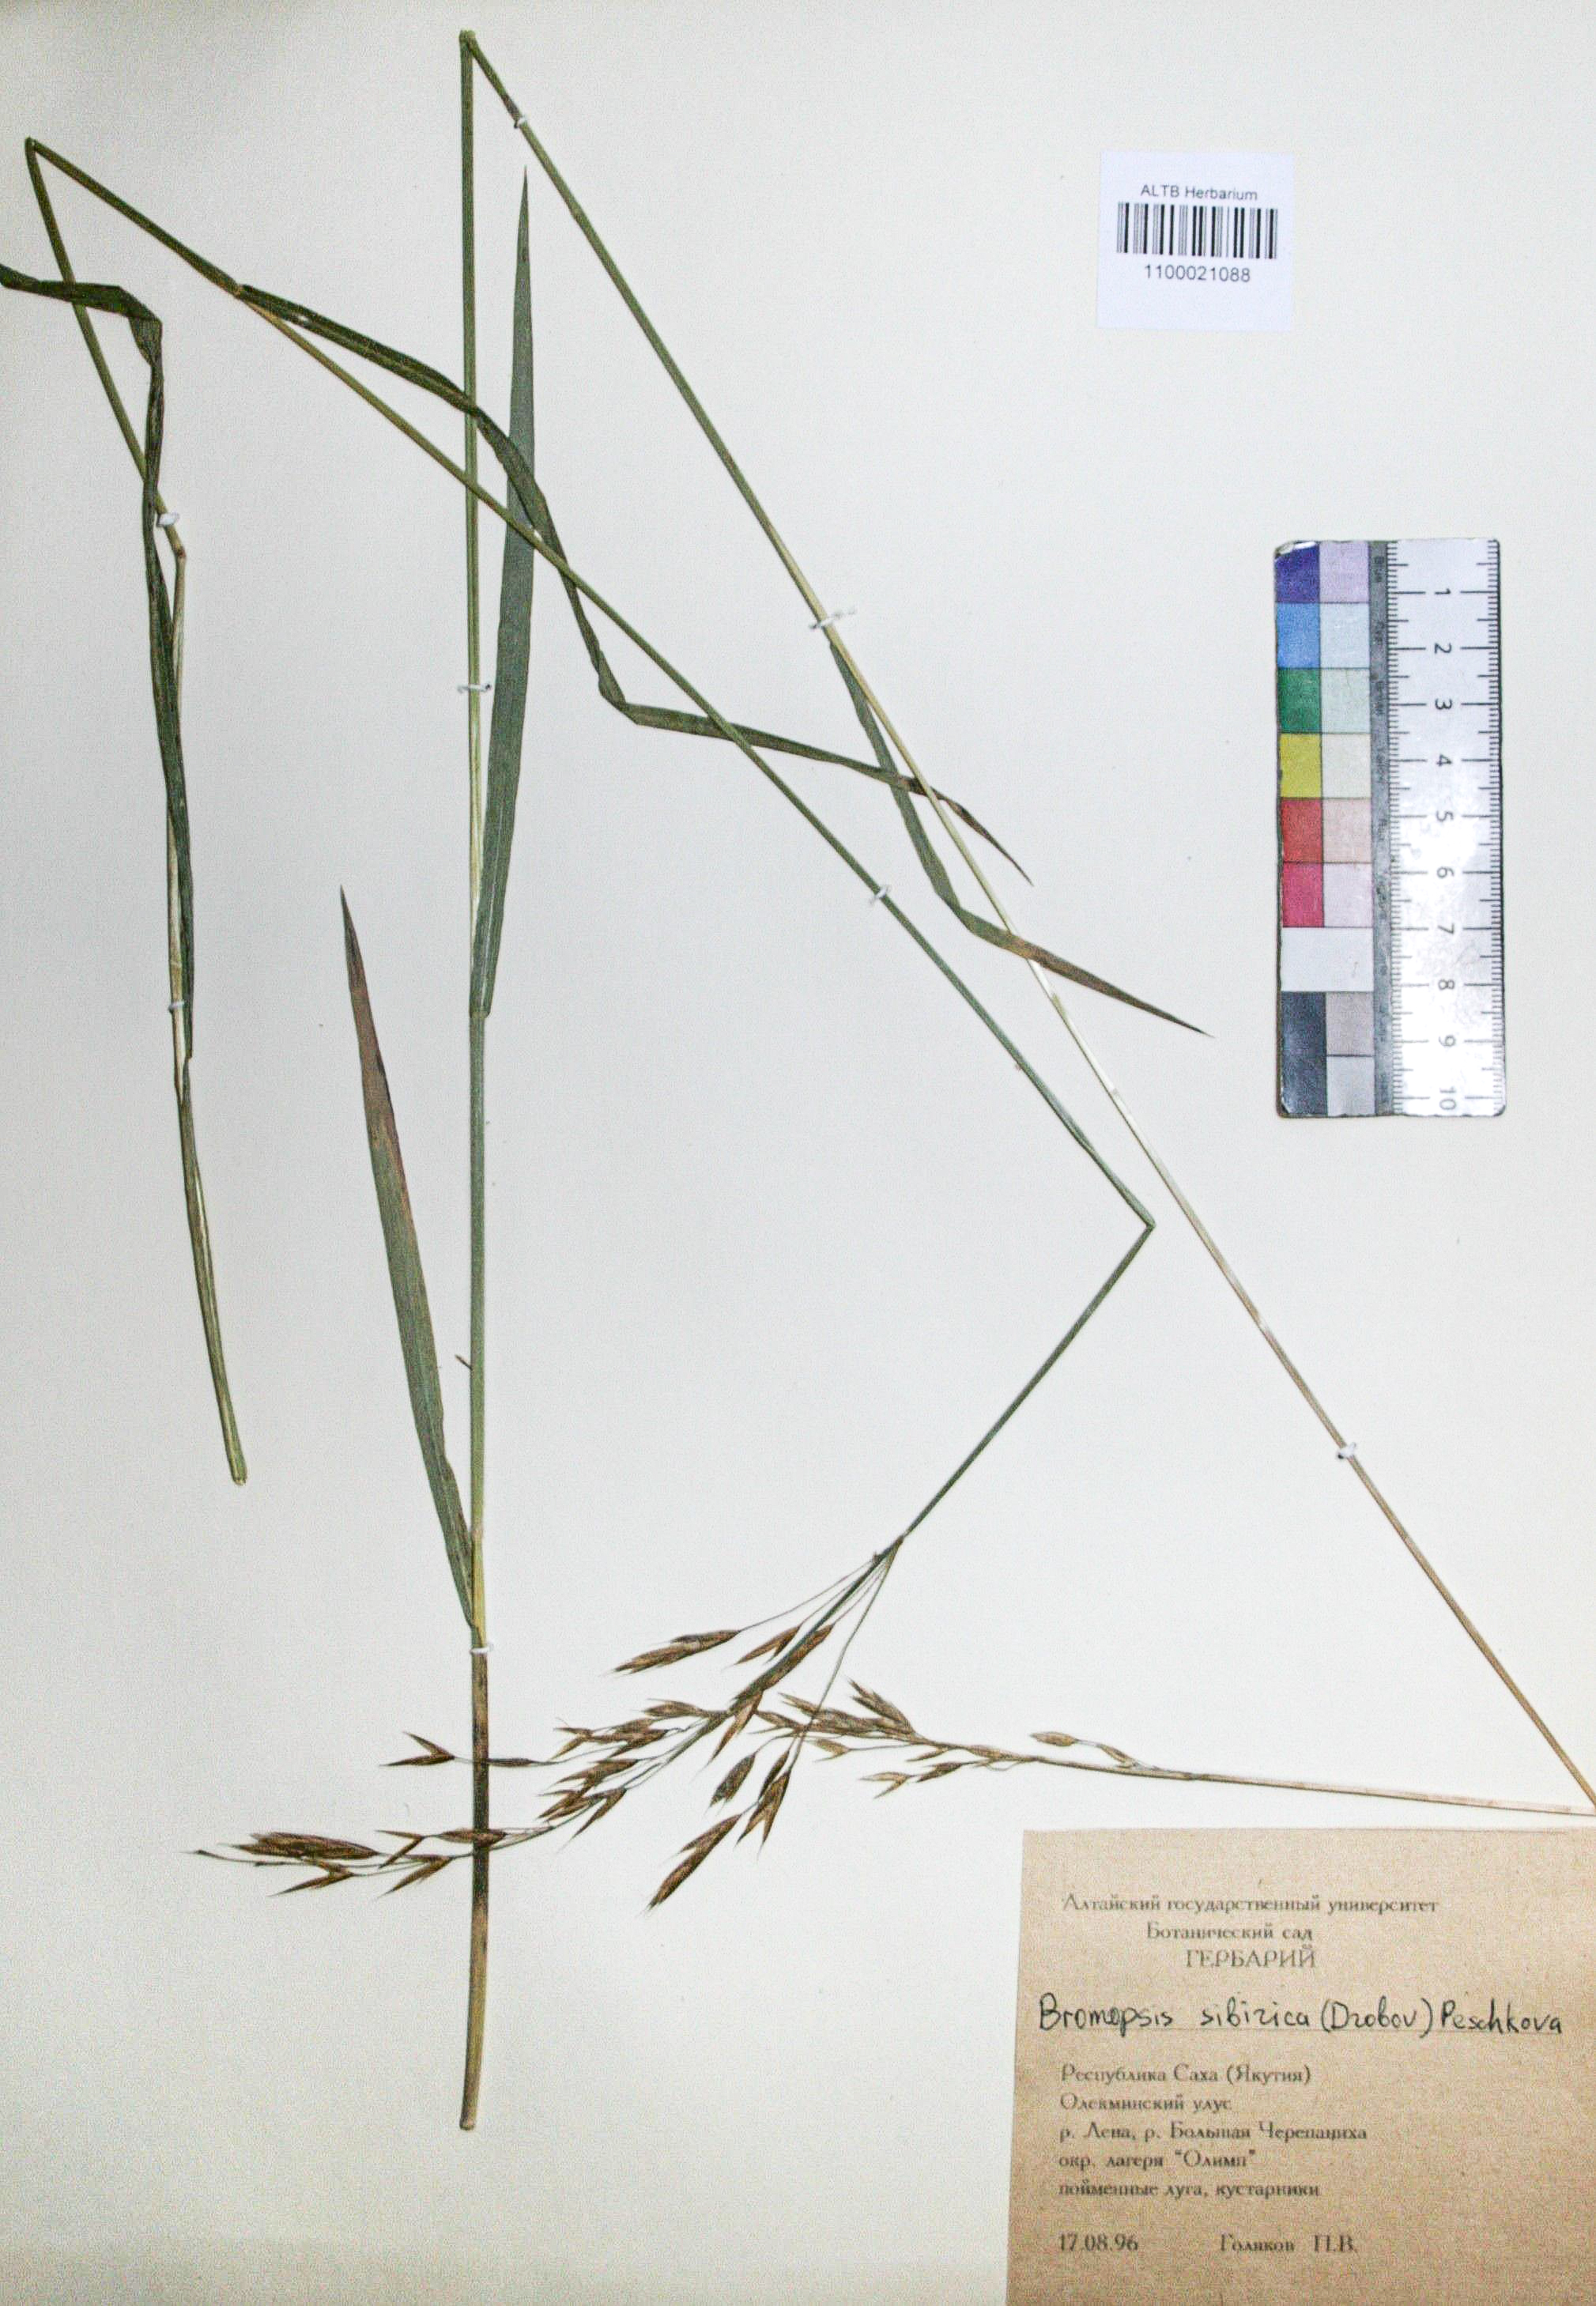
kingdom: Plantae
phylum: Tracheophyta
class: Liliopsida
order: Poales
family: Poaceae
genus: Bromus
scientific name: Bromus pumpellianus
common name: Pumpelly's brome
